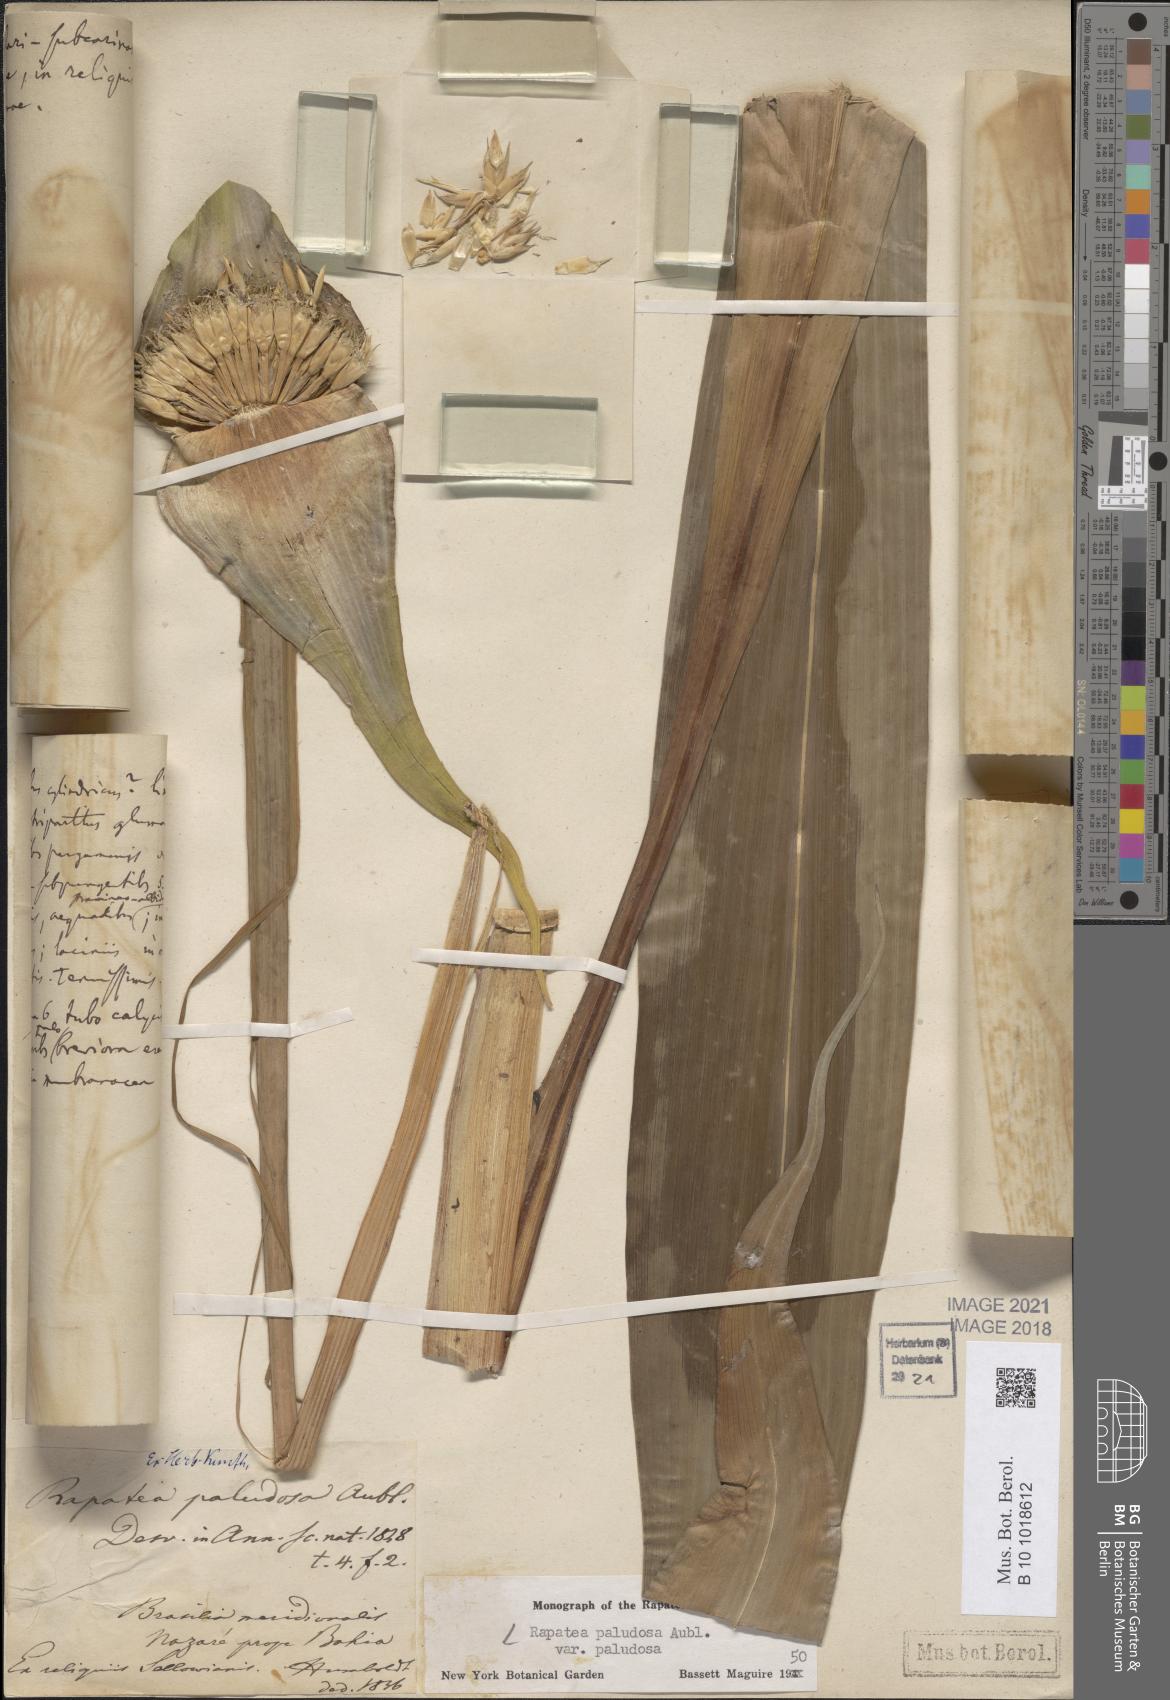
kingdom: Plantae
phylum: Tracheophyta
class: Liliopsida
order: Poales
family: Rapateaceae
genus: Rapatea
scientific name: Rapatea paludosa
